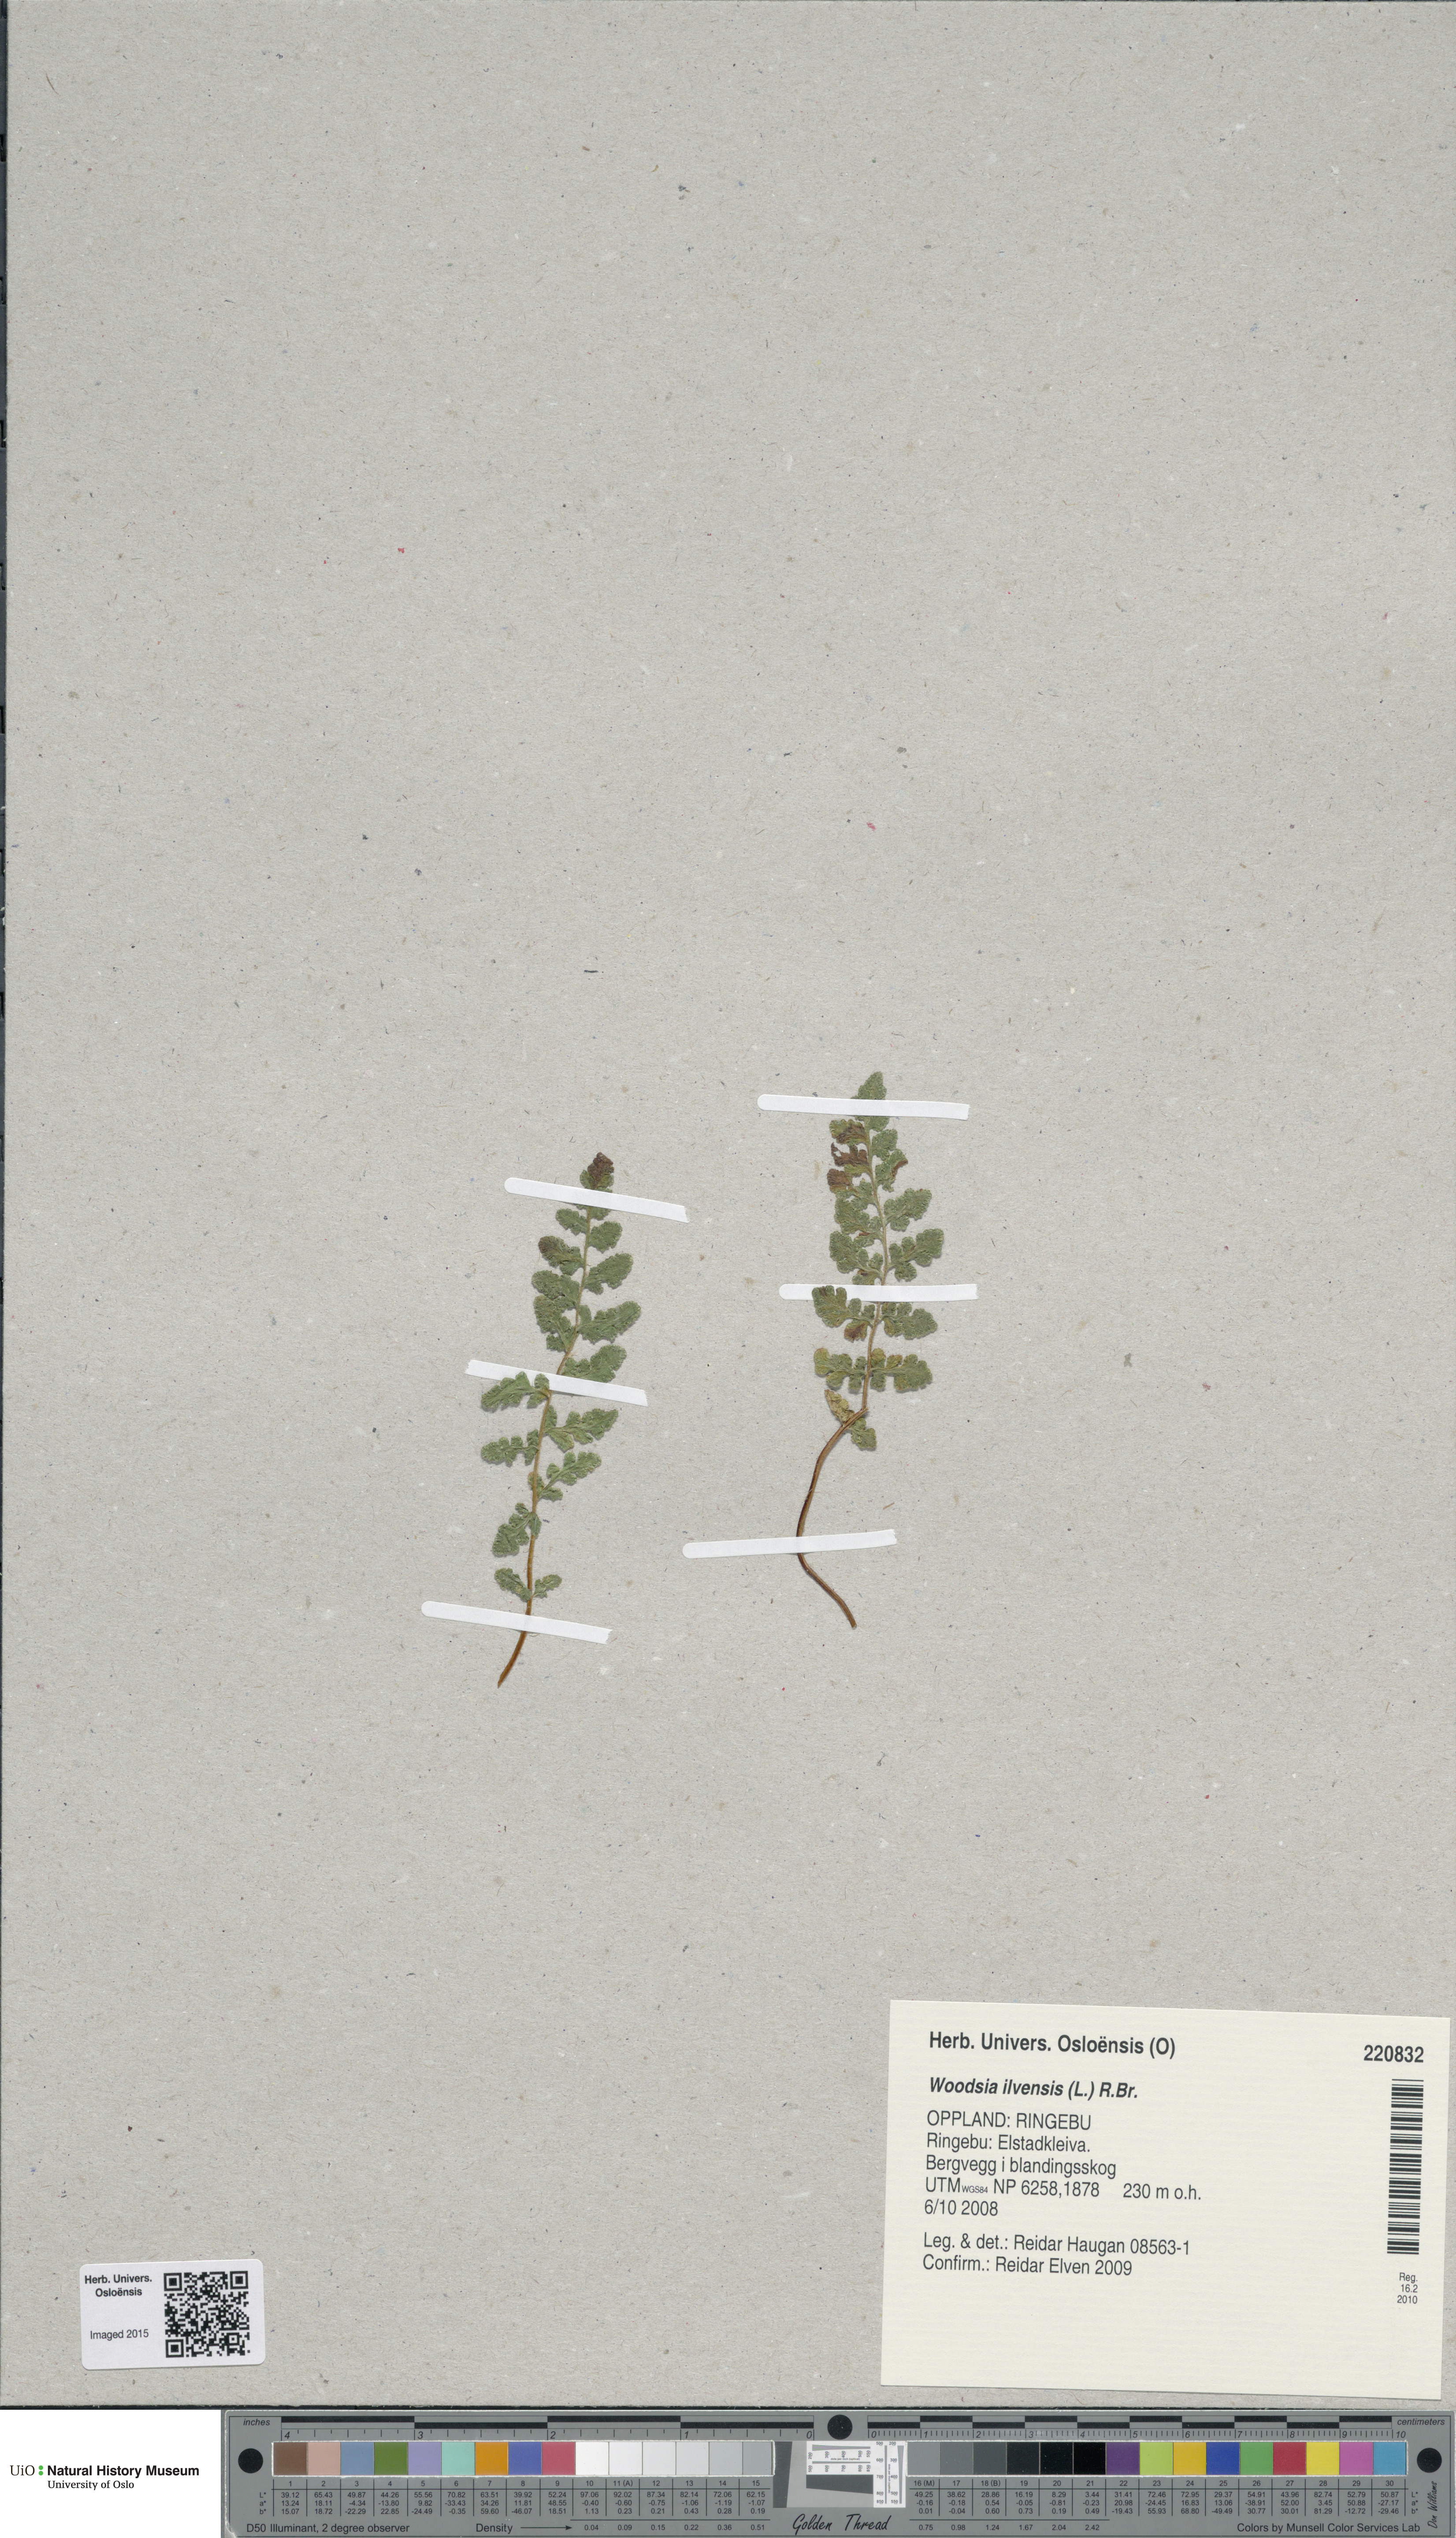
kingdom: Plantae
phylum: Tracheophyta
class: Polypodiopsida
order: Polypodiales
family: Woodsiaceae
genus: Woodsia
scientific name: Woodsia ilvensis
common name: Fragrant woodsia
